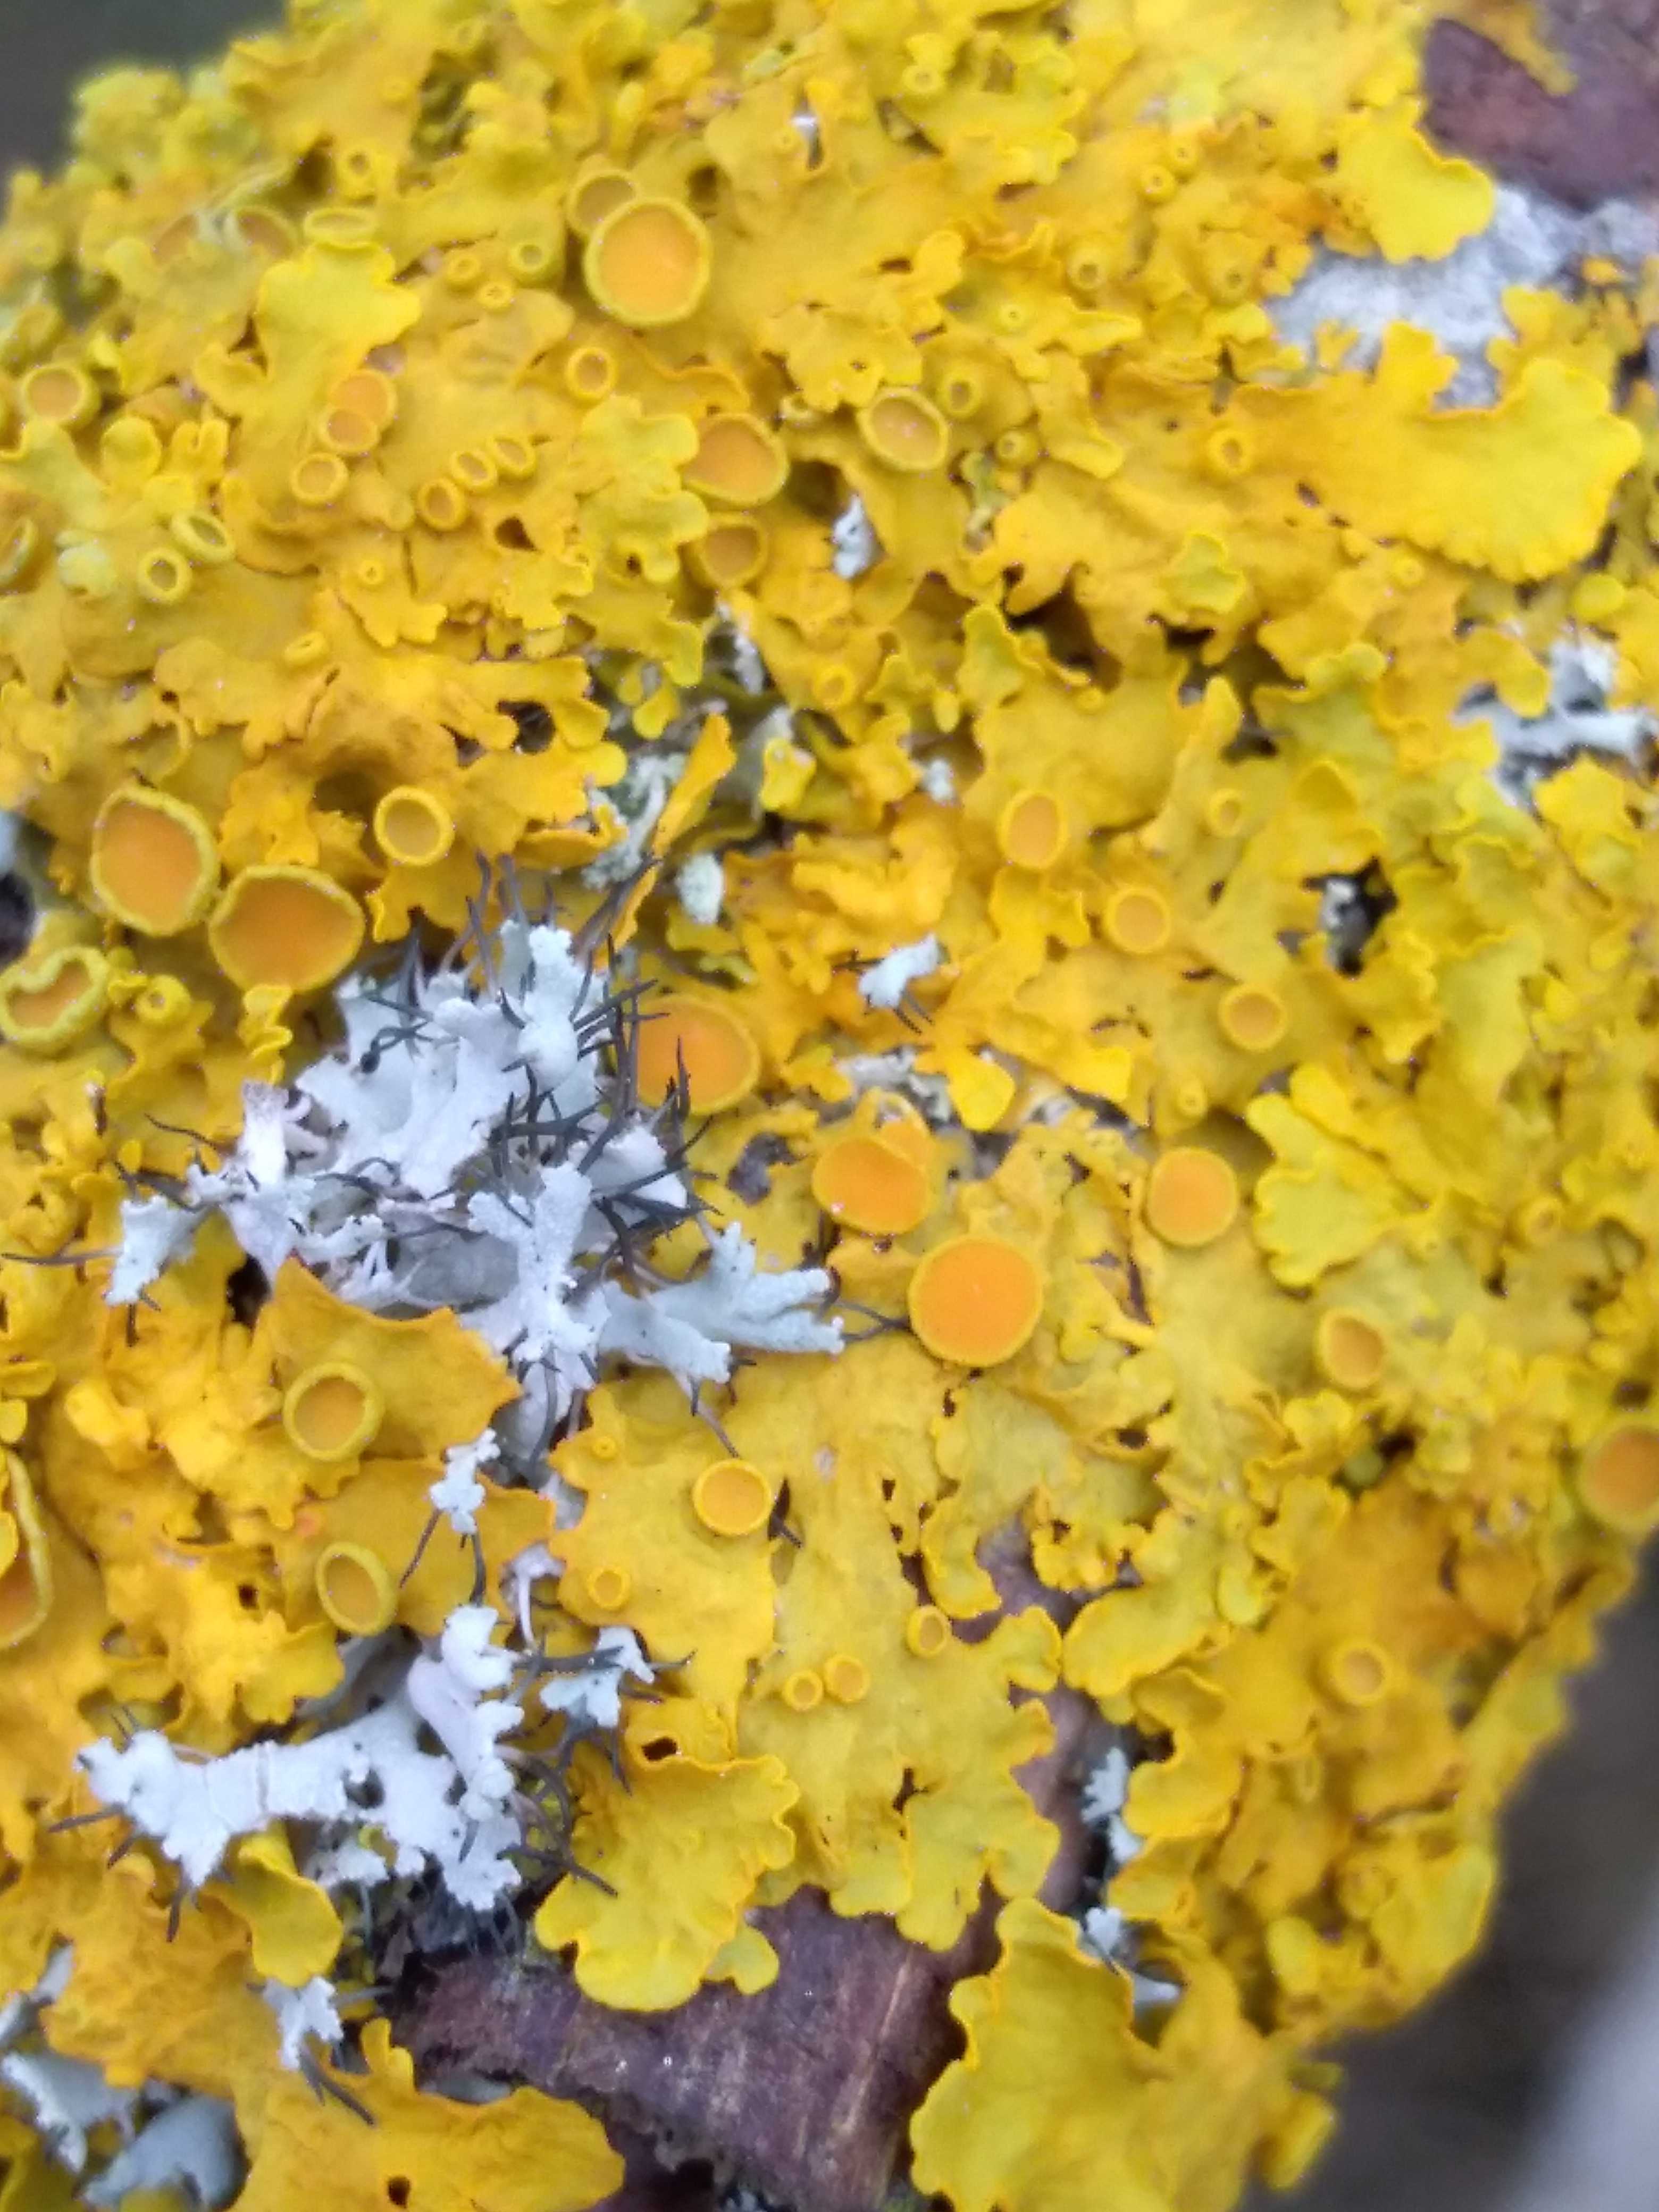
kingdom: Fungi
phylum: Ascomycota
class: Lecanoromycetes
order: Teloschistales
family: Teloschistaceae
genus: Xanthoria
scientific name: Xanthoria parietina
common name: almindelig væggelav
